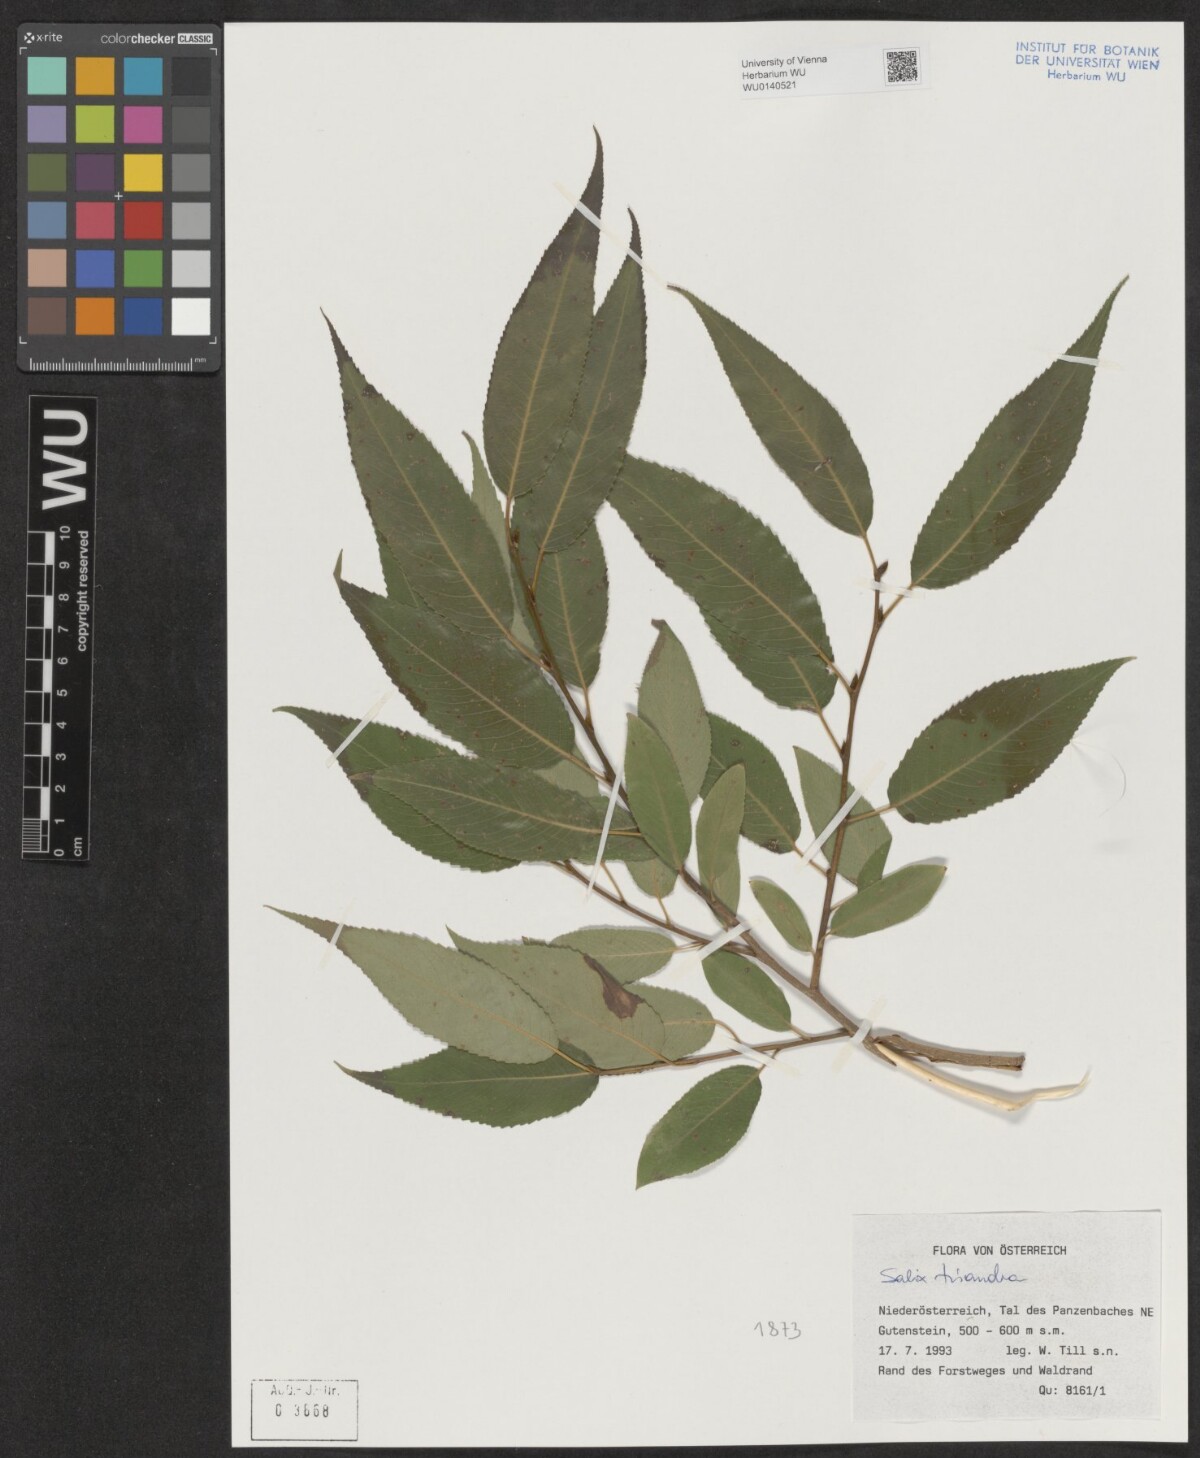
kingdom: Plantae
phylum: Tracheophyta
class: Magnoliopsida
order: Malpighiales
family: Salicaceae
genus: Salix
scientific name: Salix triandra
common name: Almond willow
